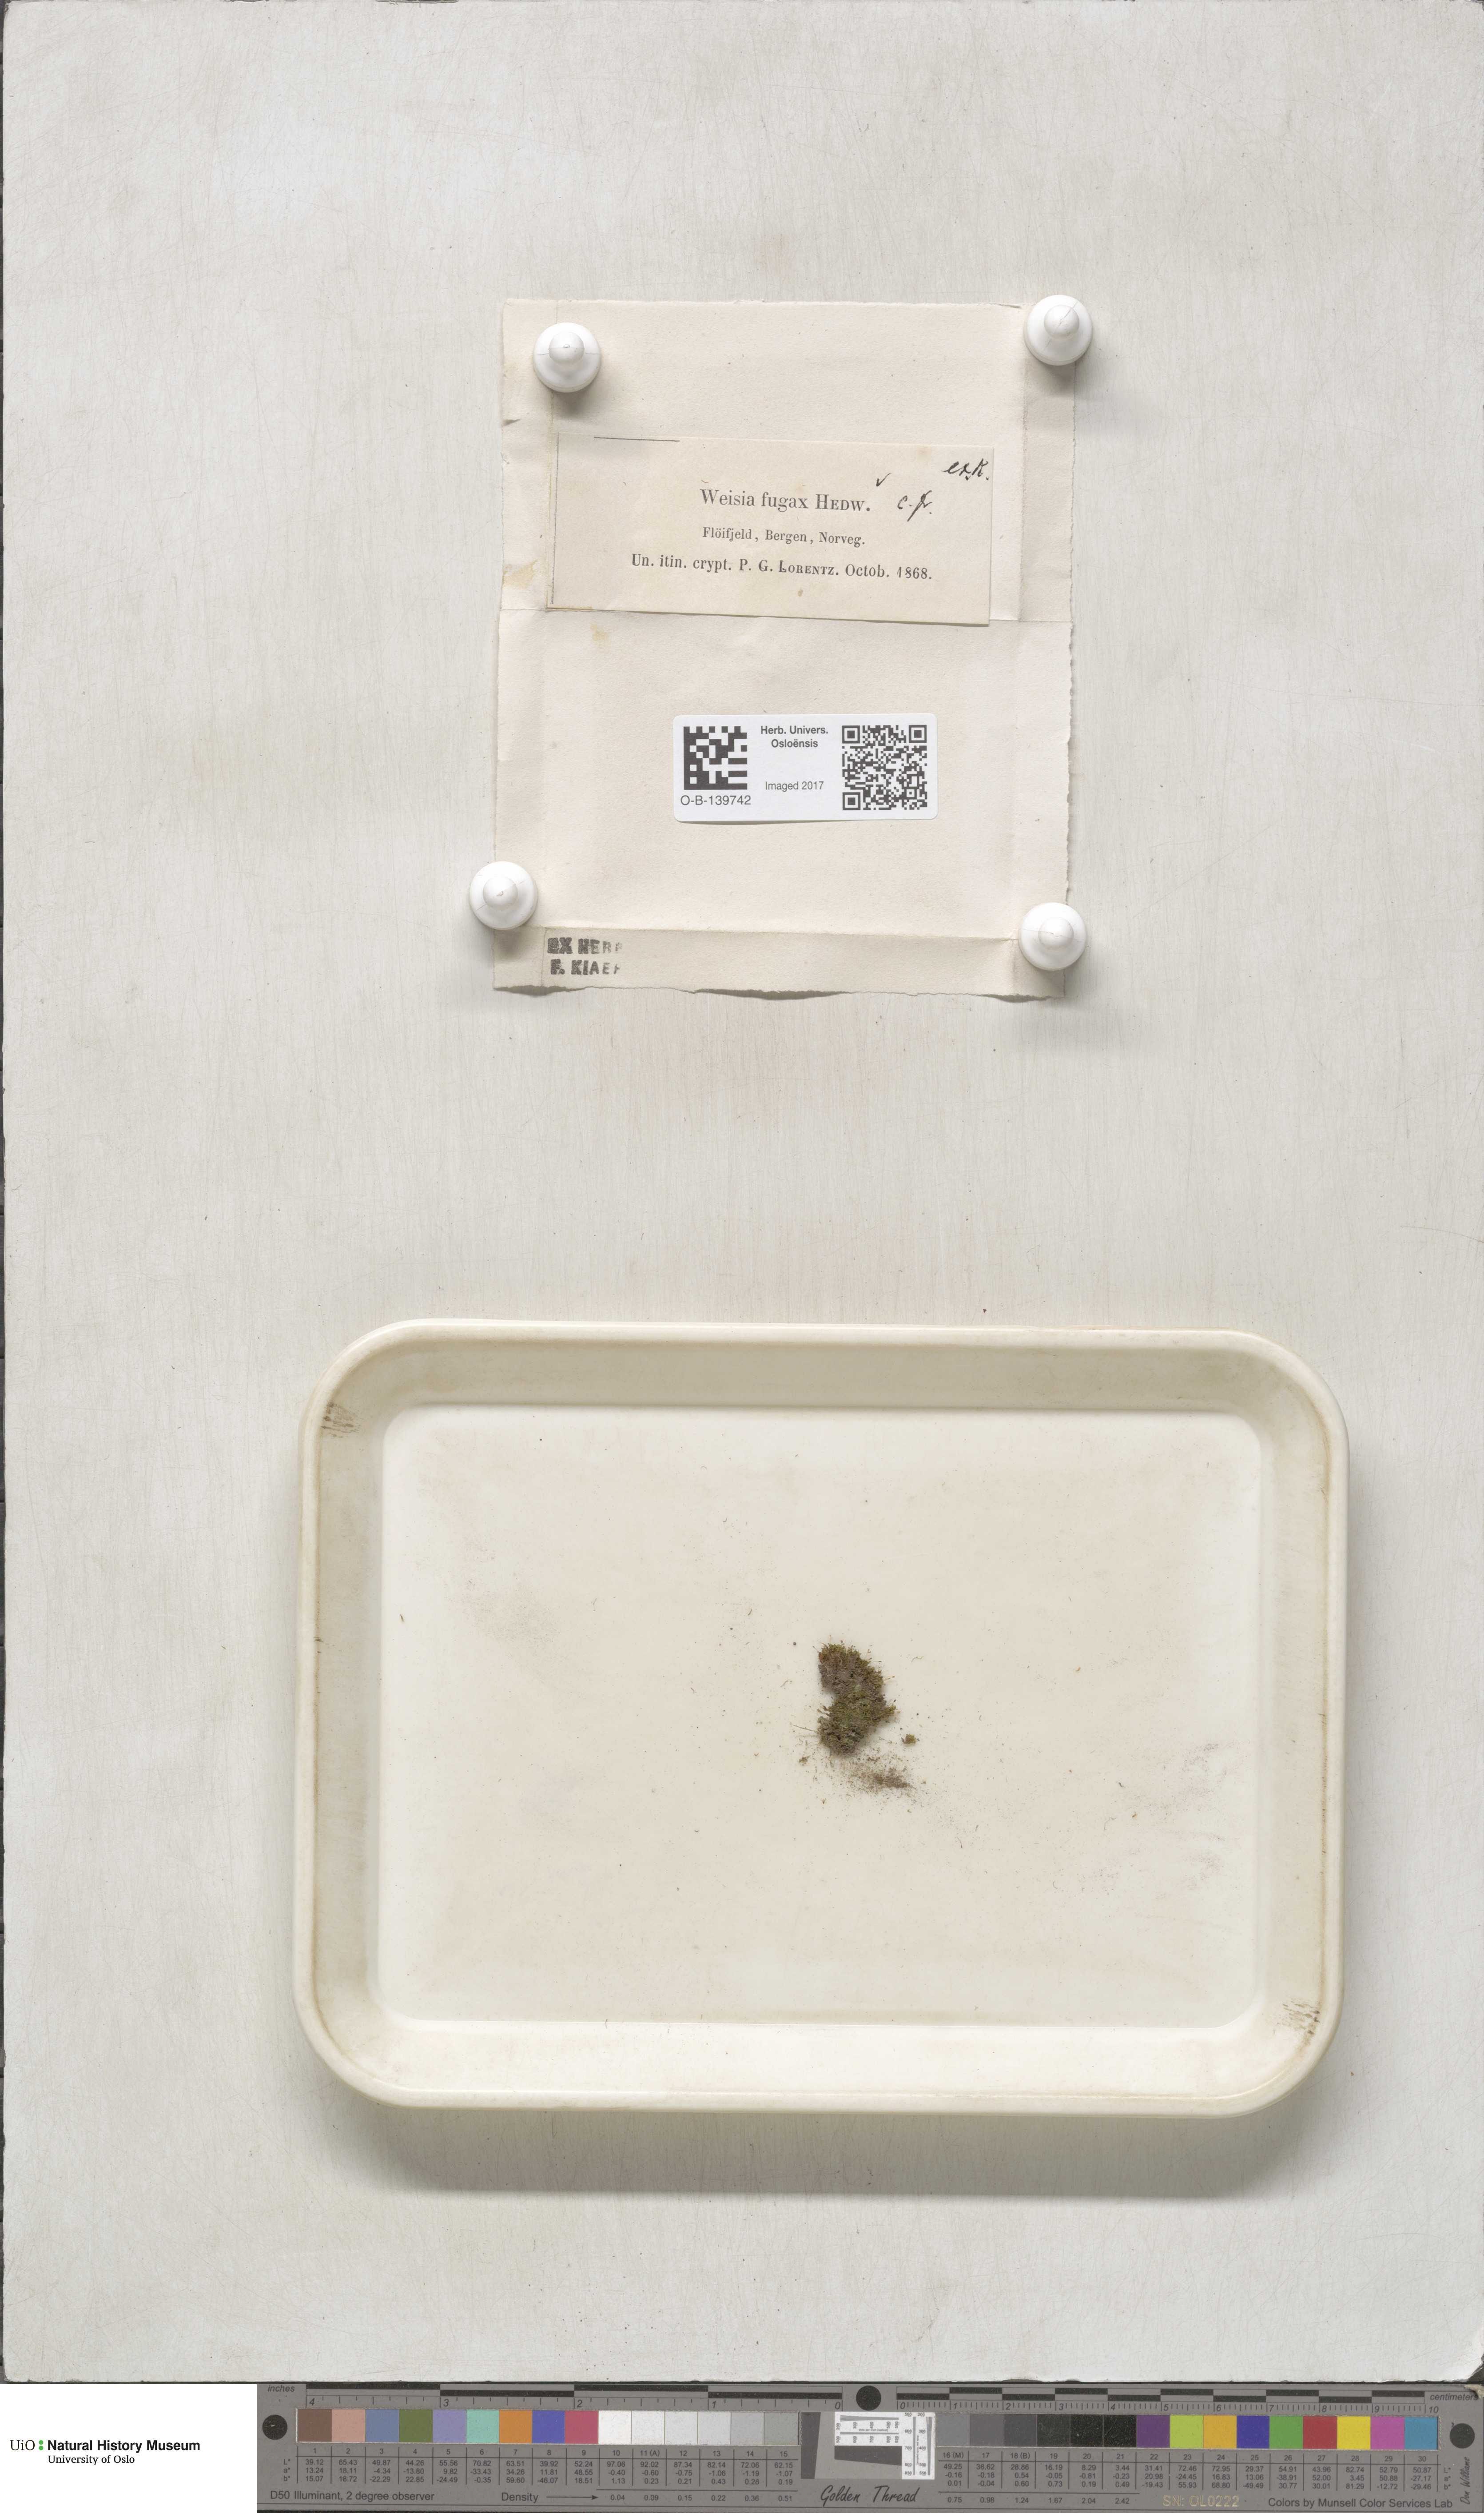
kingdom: Plantae
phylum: Bryophyta
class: Bryopsida
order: Dicranales
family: Rhabdoweisiaceae
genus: Rhabdoweisia
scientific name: Rhabdoweisia fugax
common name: Dwarf streak-moss
